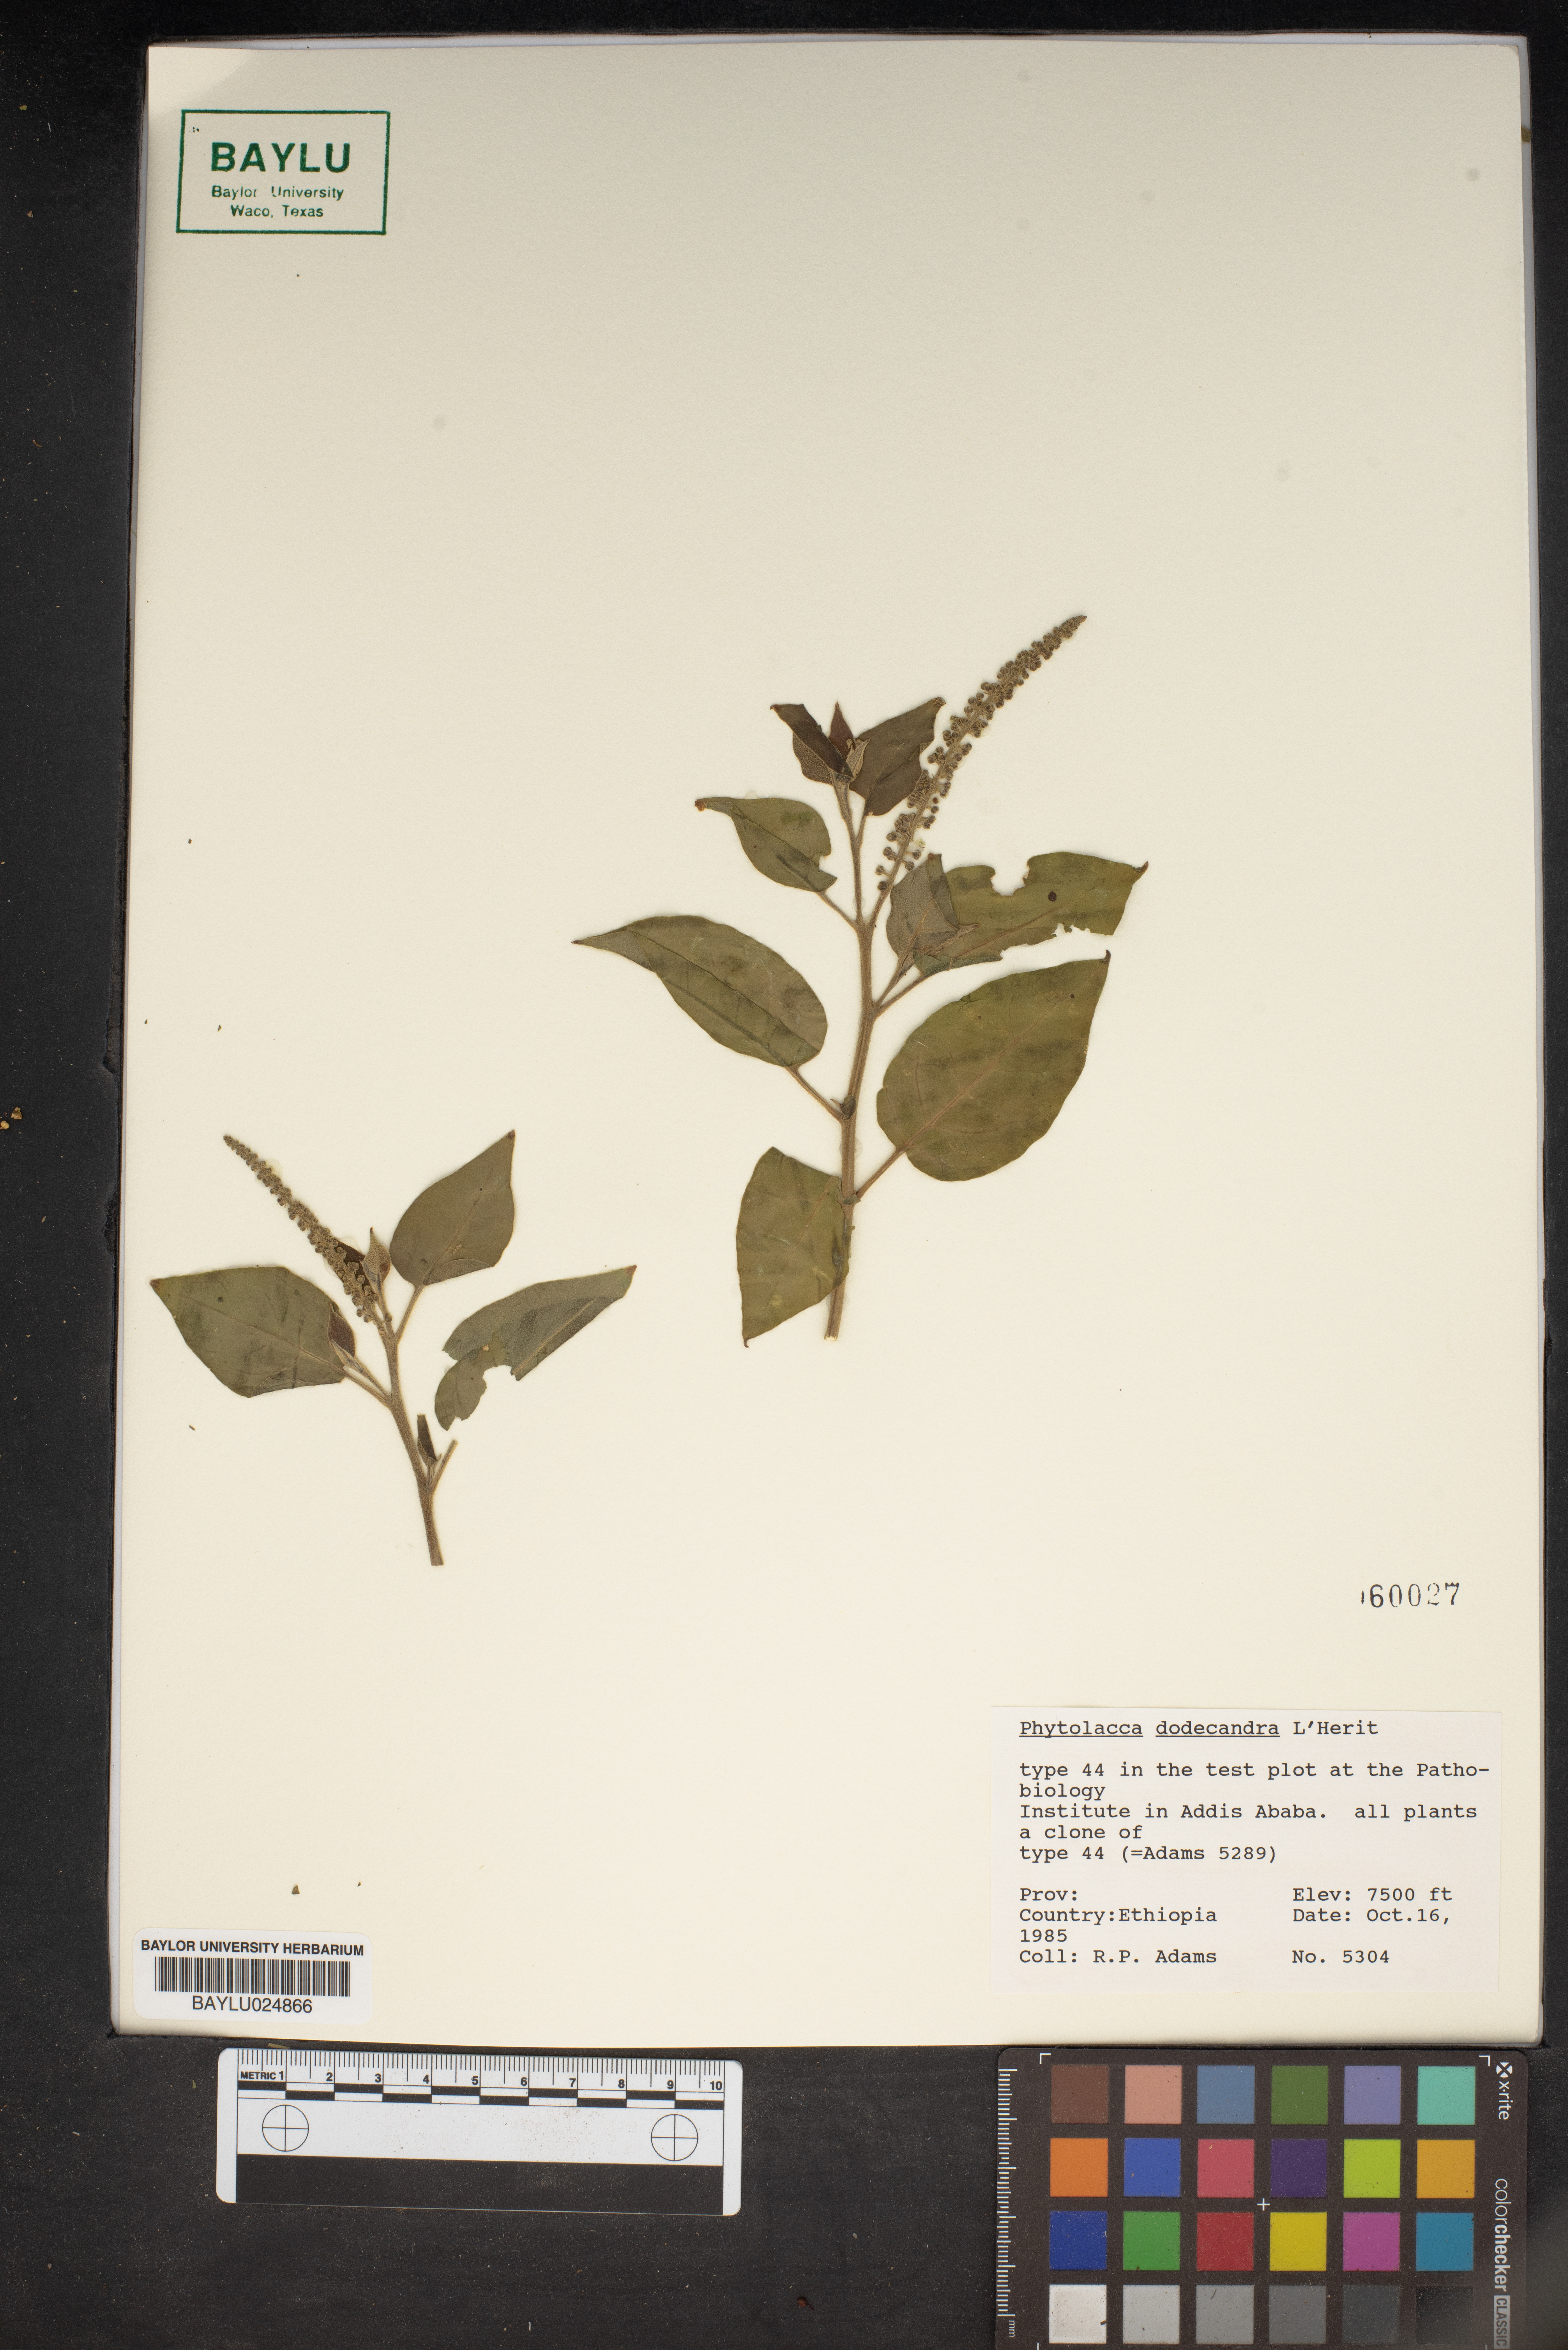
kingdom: Plantae
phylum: Tracheophyta
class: Magnoliopsida
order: Caryophyllales
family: Phytolaccaceae
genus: Phytolacca
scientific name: Phytolacca dodecandra
